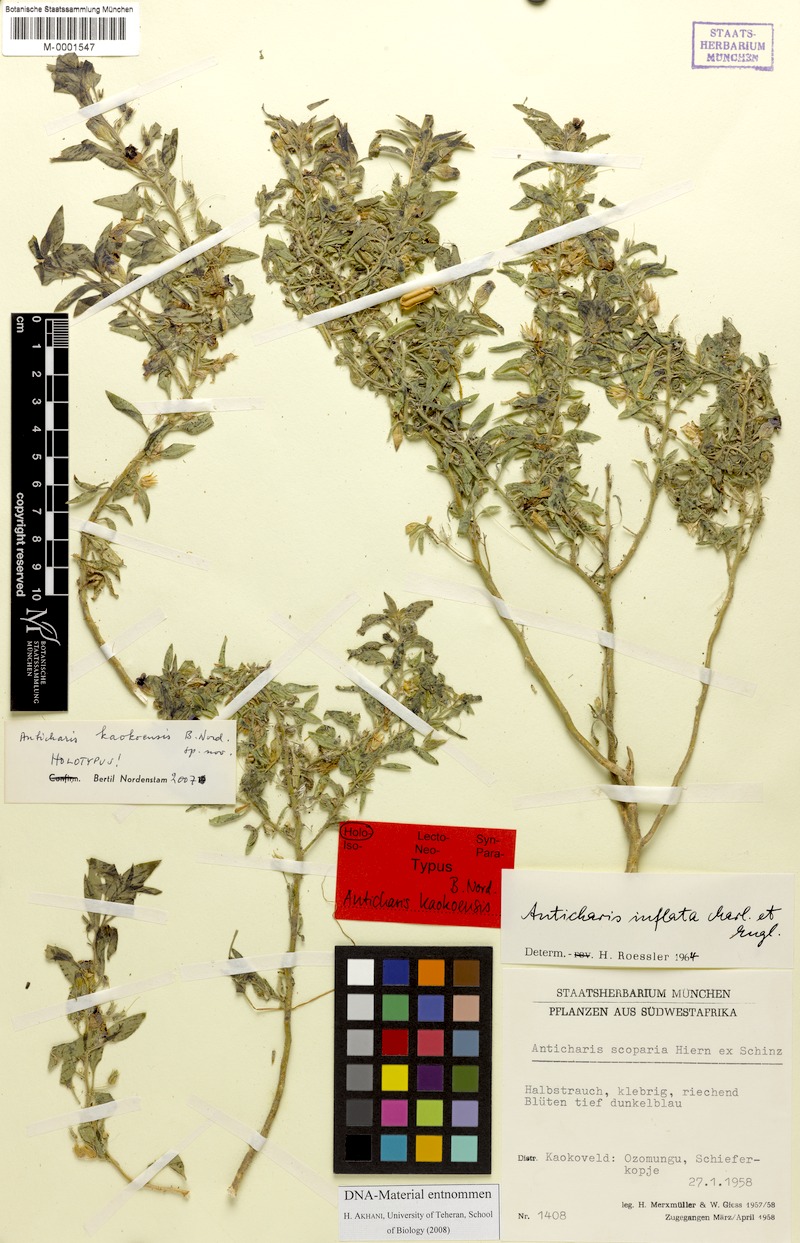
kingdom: Plantae
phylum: Tracheophyta
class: Magnoliopsida
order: Lamiales
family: Scrophulariaceae
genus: Anticharis
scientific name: Anticharis kaokoensis
